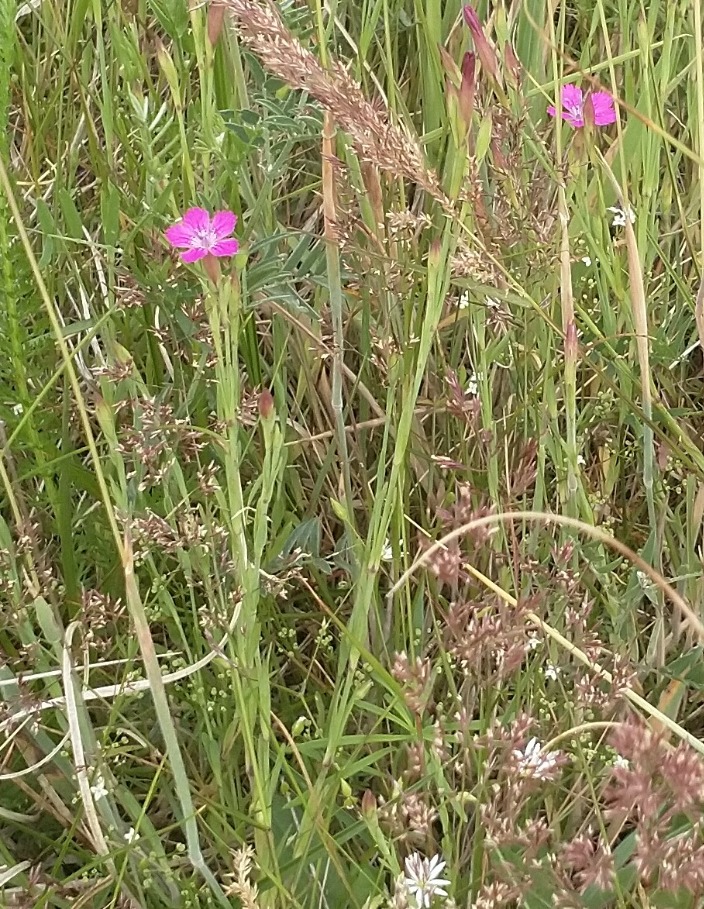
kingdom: Plantae
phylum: Tracheophyta
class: Magnoliopsida
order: Caryophyllales
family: Caryophyllaceae
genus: Dianthus
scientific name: Dianthus deltoides
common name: Bakke-nellike
